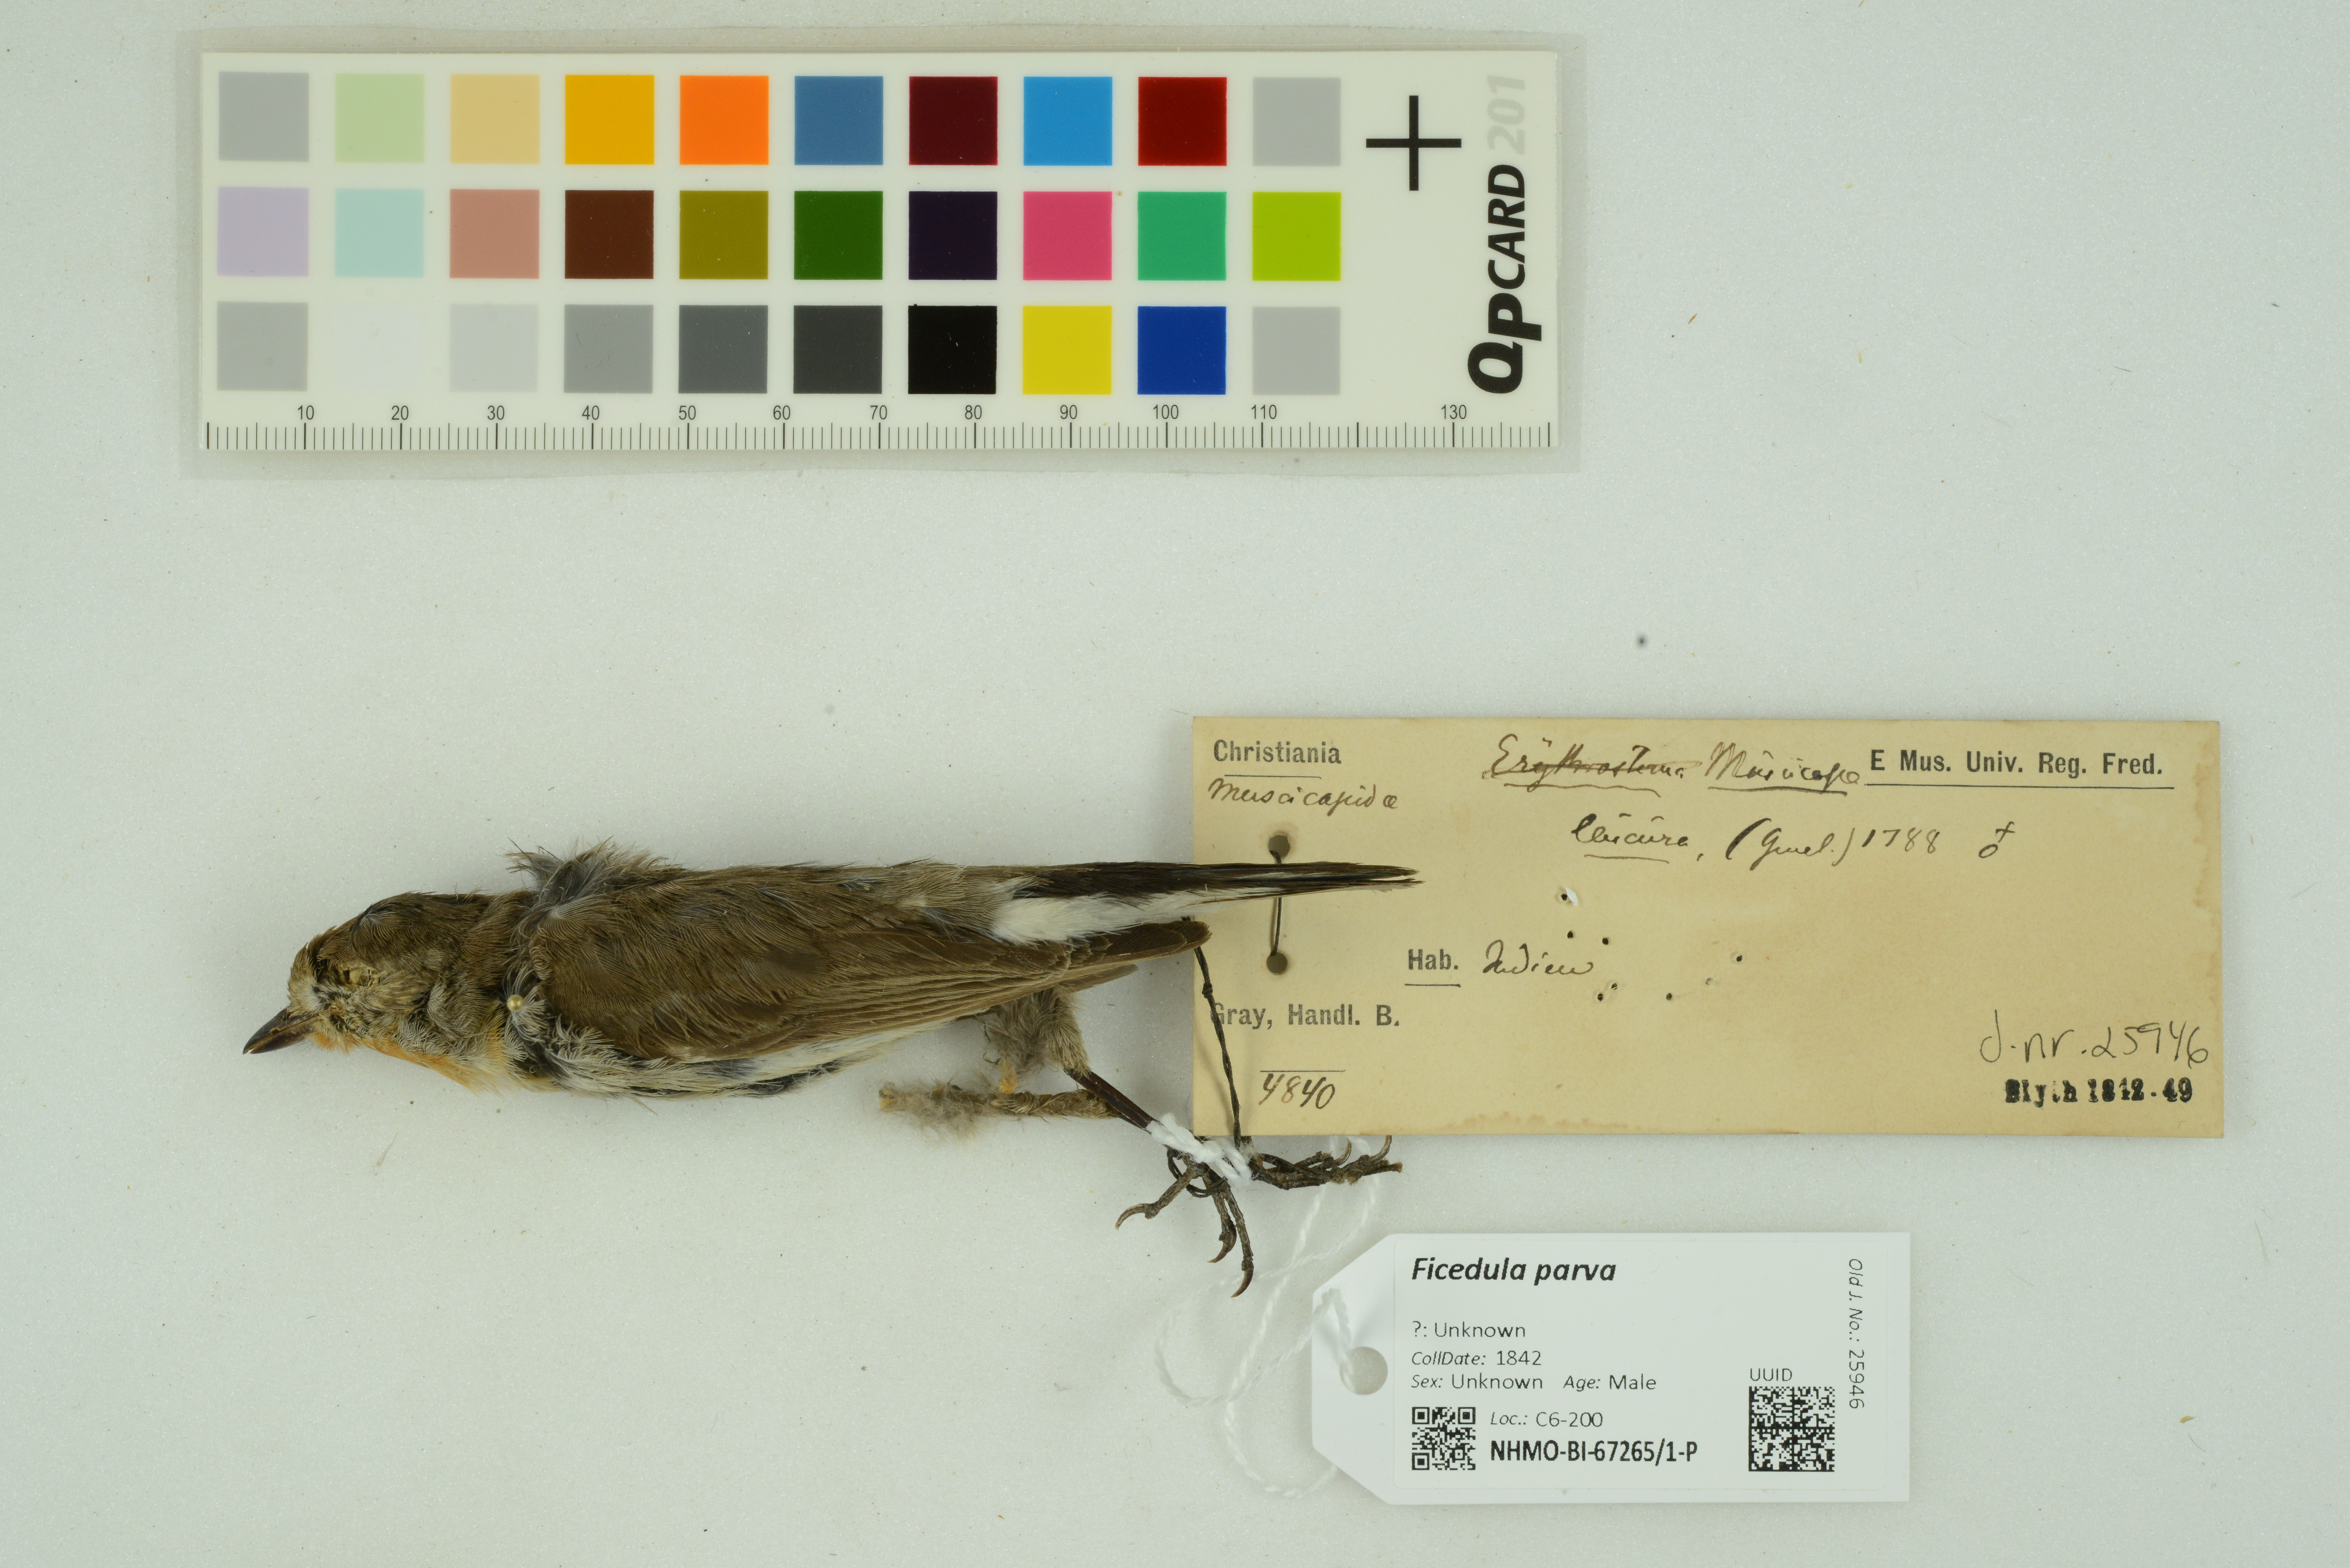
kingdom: Animalia
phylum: Chordata
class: Aves
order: Passeriformes
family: Muscicapidae
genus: Ficedula
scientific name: Ficedula parva
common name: Red-breasted flycatcher
